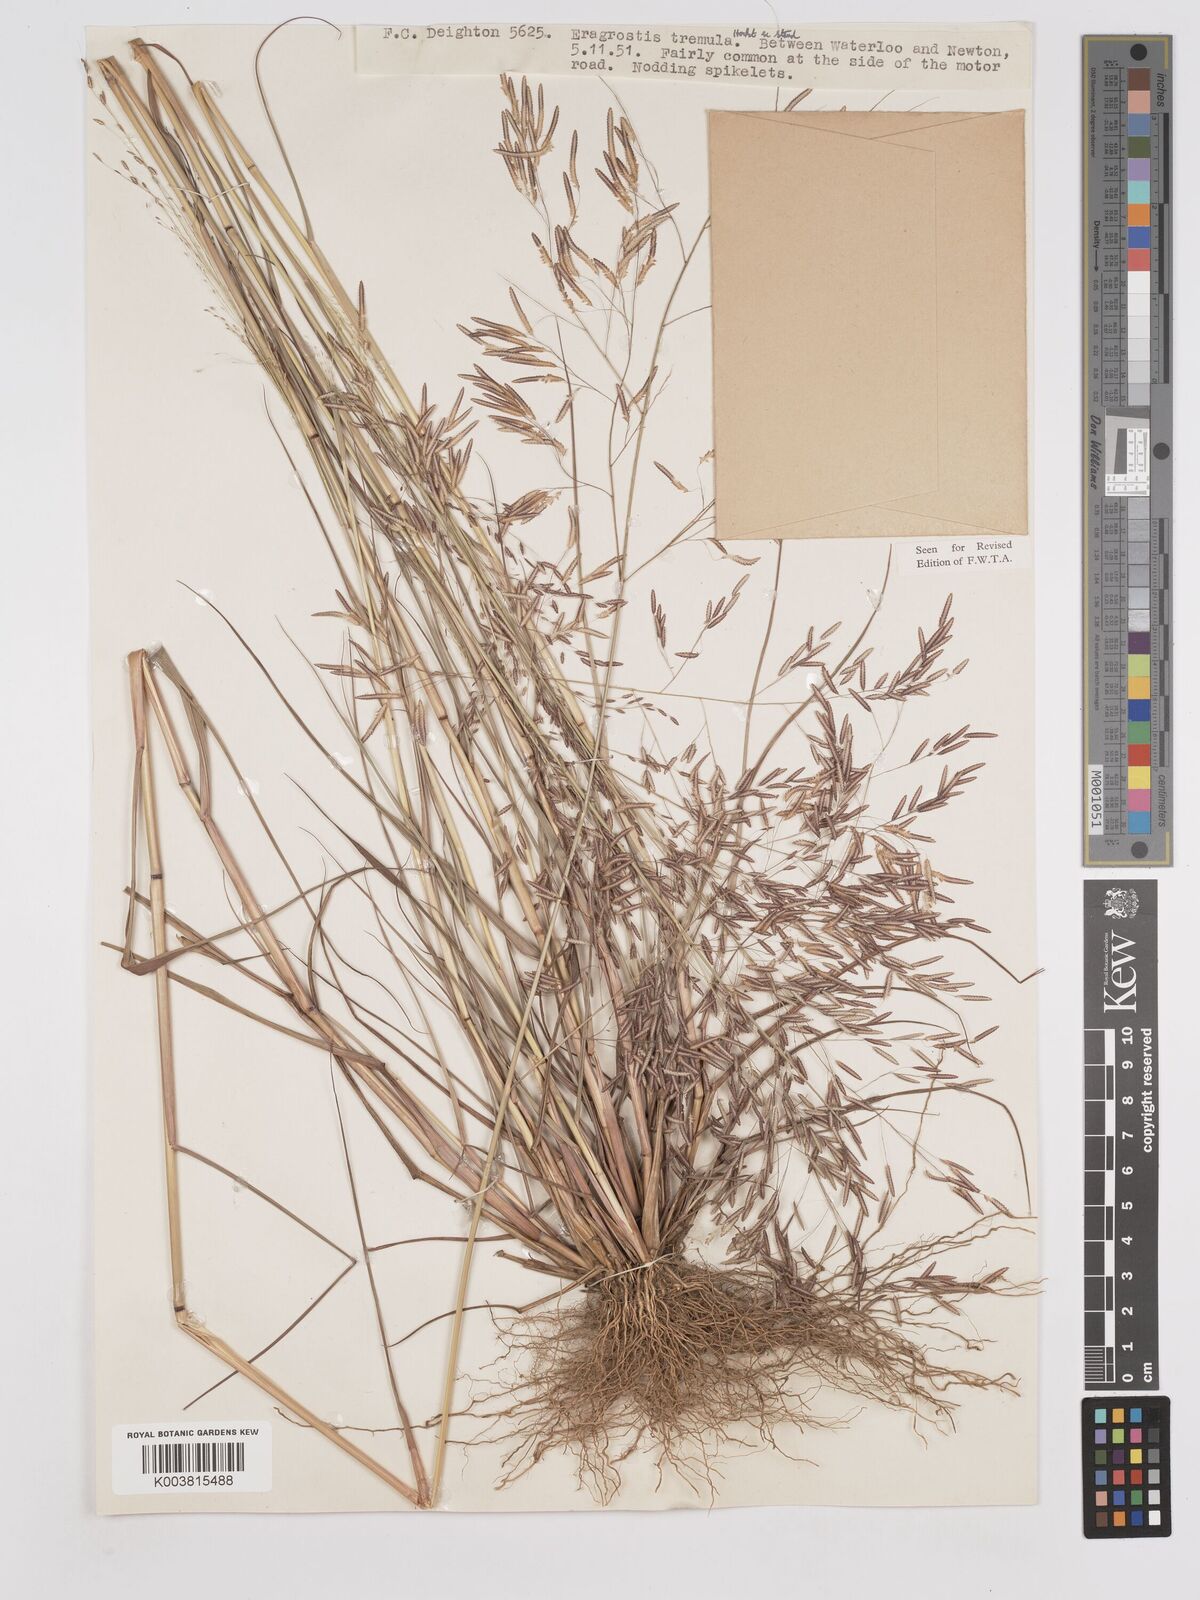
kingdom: Plantae
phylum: Tracheophyta
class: Liliopsida
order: Poales
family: Poaceae
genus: Eragrostis
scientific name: Eragrostis tremula
